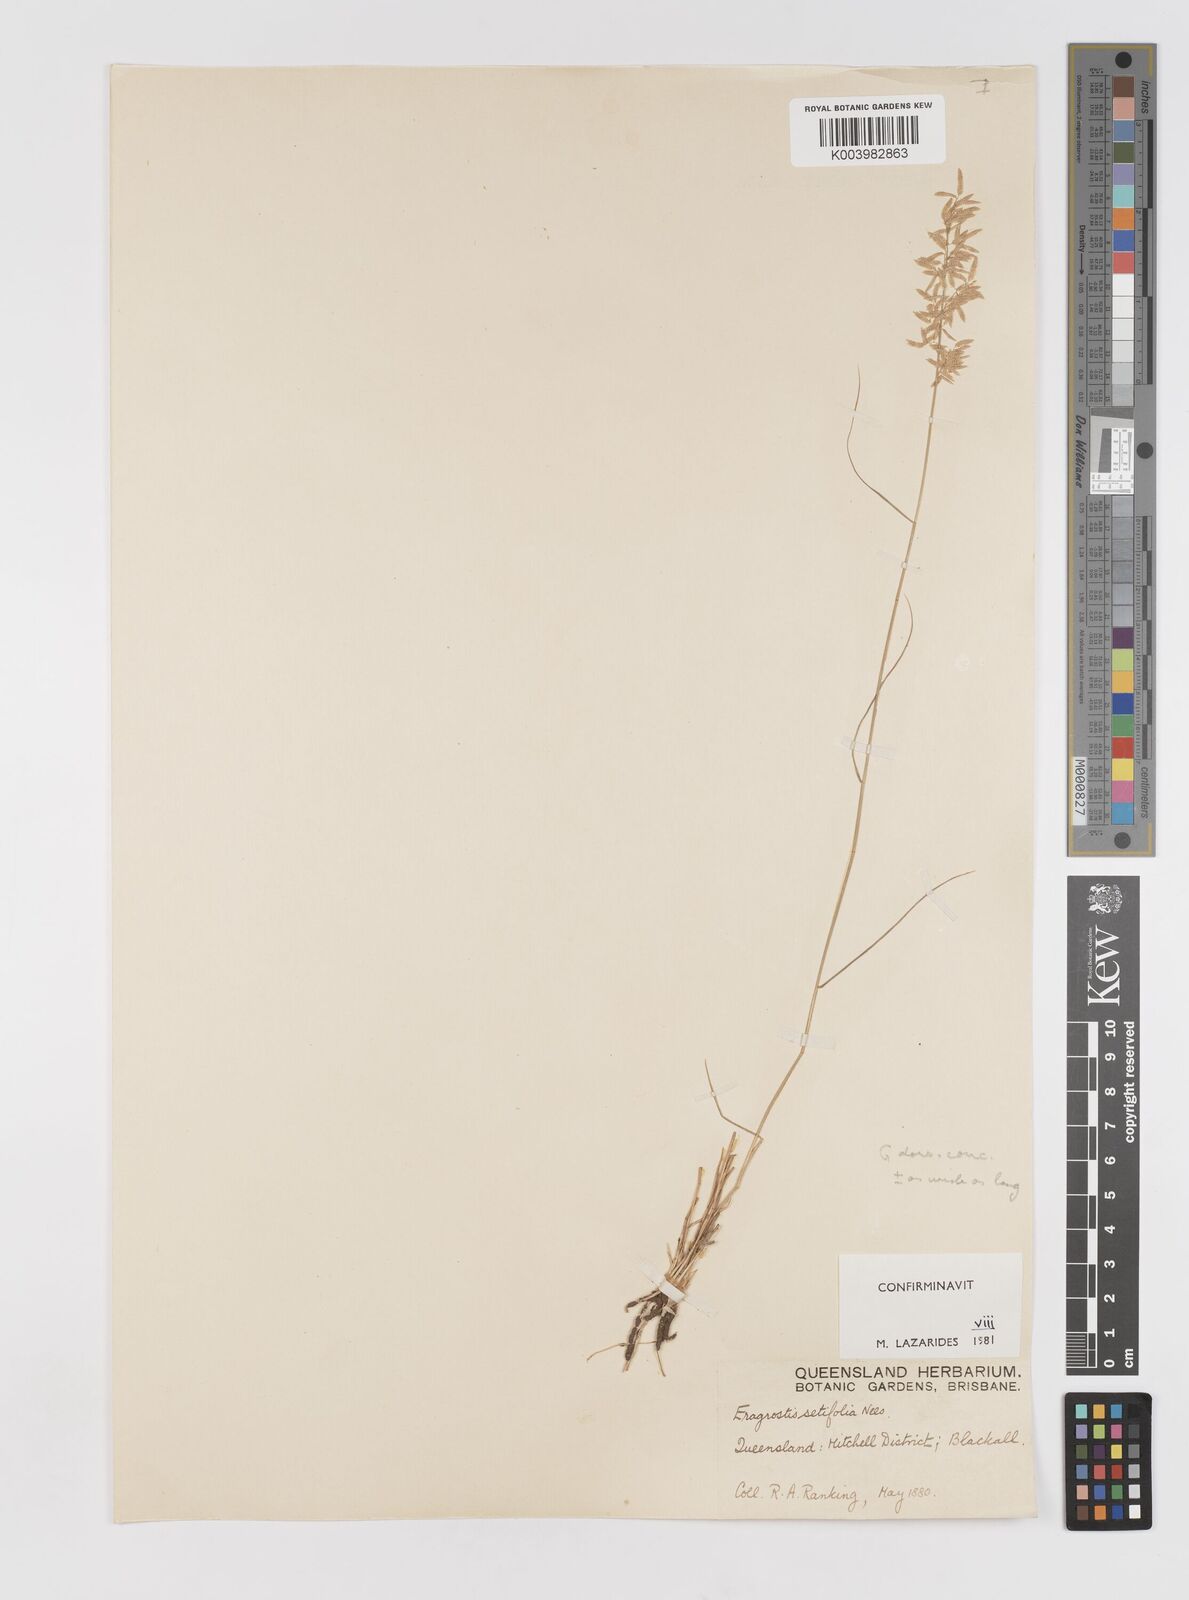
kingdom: Plantae
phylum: Tracheophyta
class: Liliopsida
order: Poales
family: Poaceae
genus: Eragrostis
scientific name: Eragrostis setifolia
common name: Bristleleaf lovegrass
